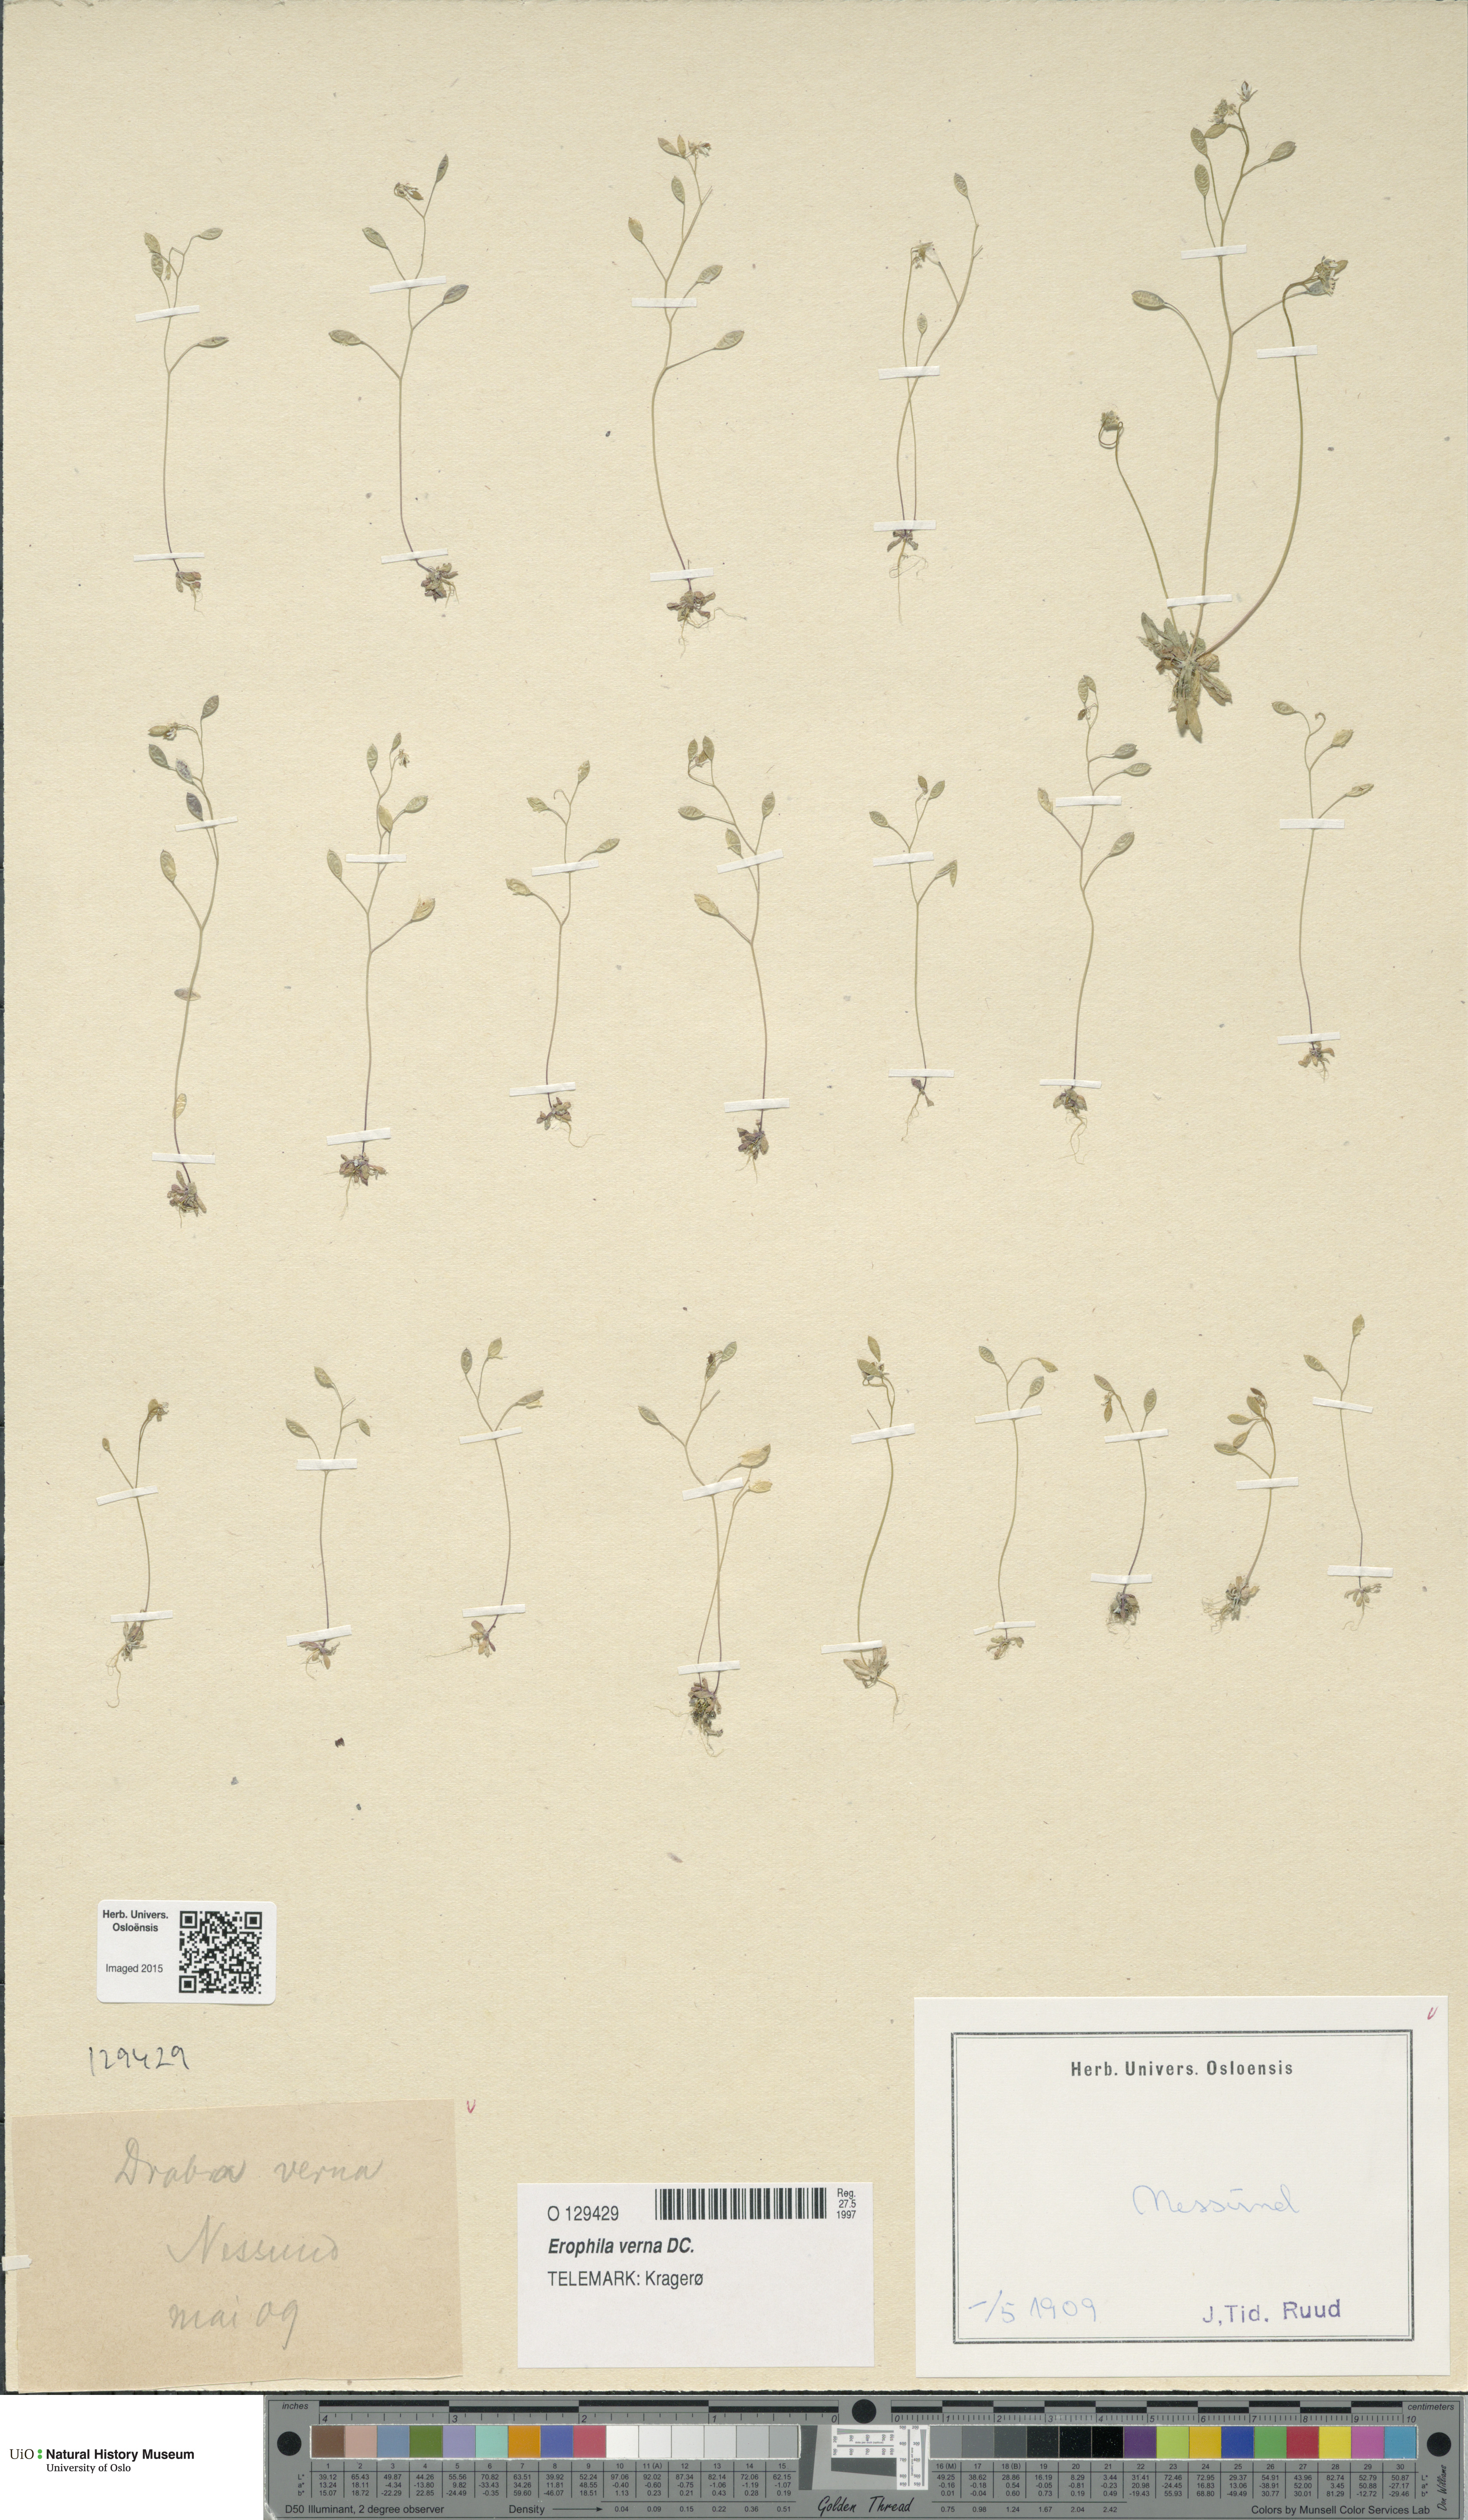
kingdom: Plantae
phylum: Tracheophyta
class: Magnoliopsida
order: Brassicales
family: Brassicaceae
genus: Draba
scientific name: Draba verna
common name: Spring draba
